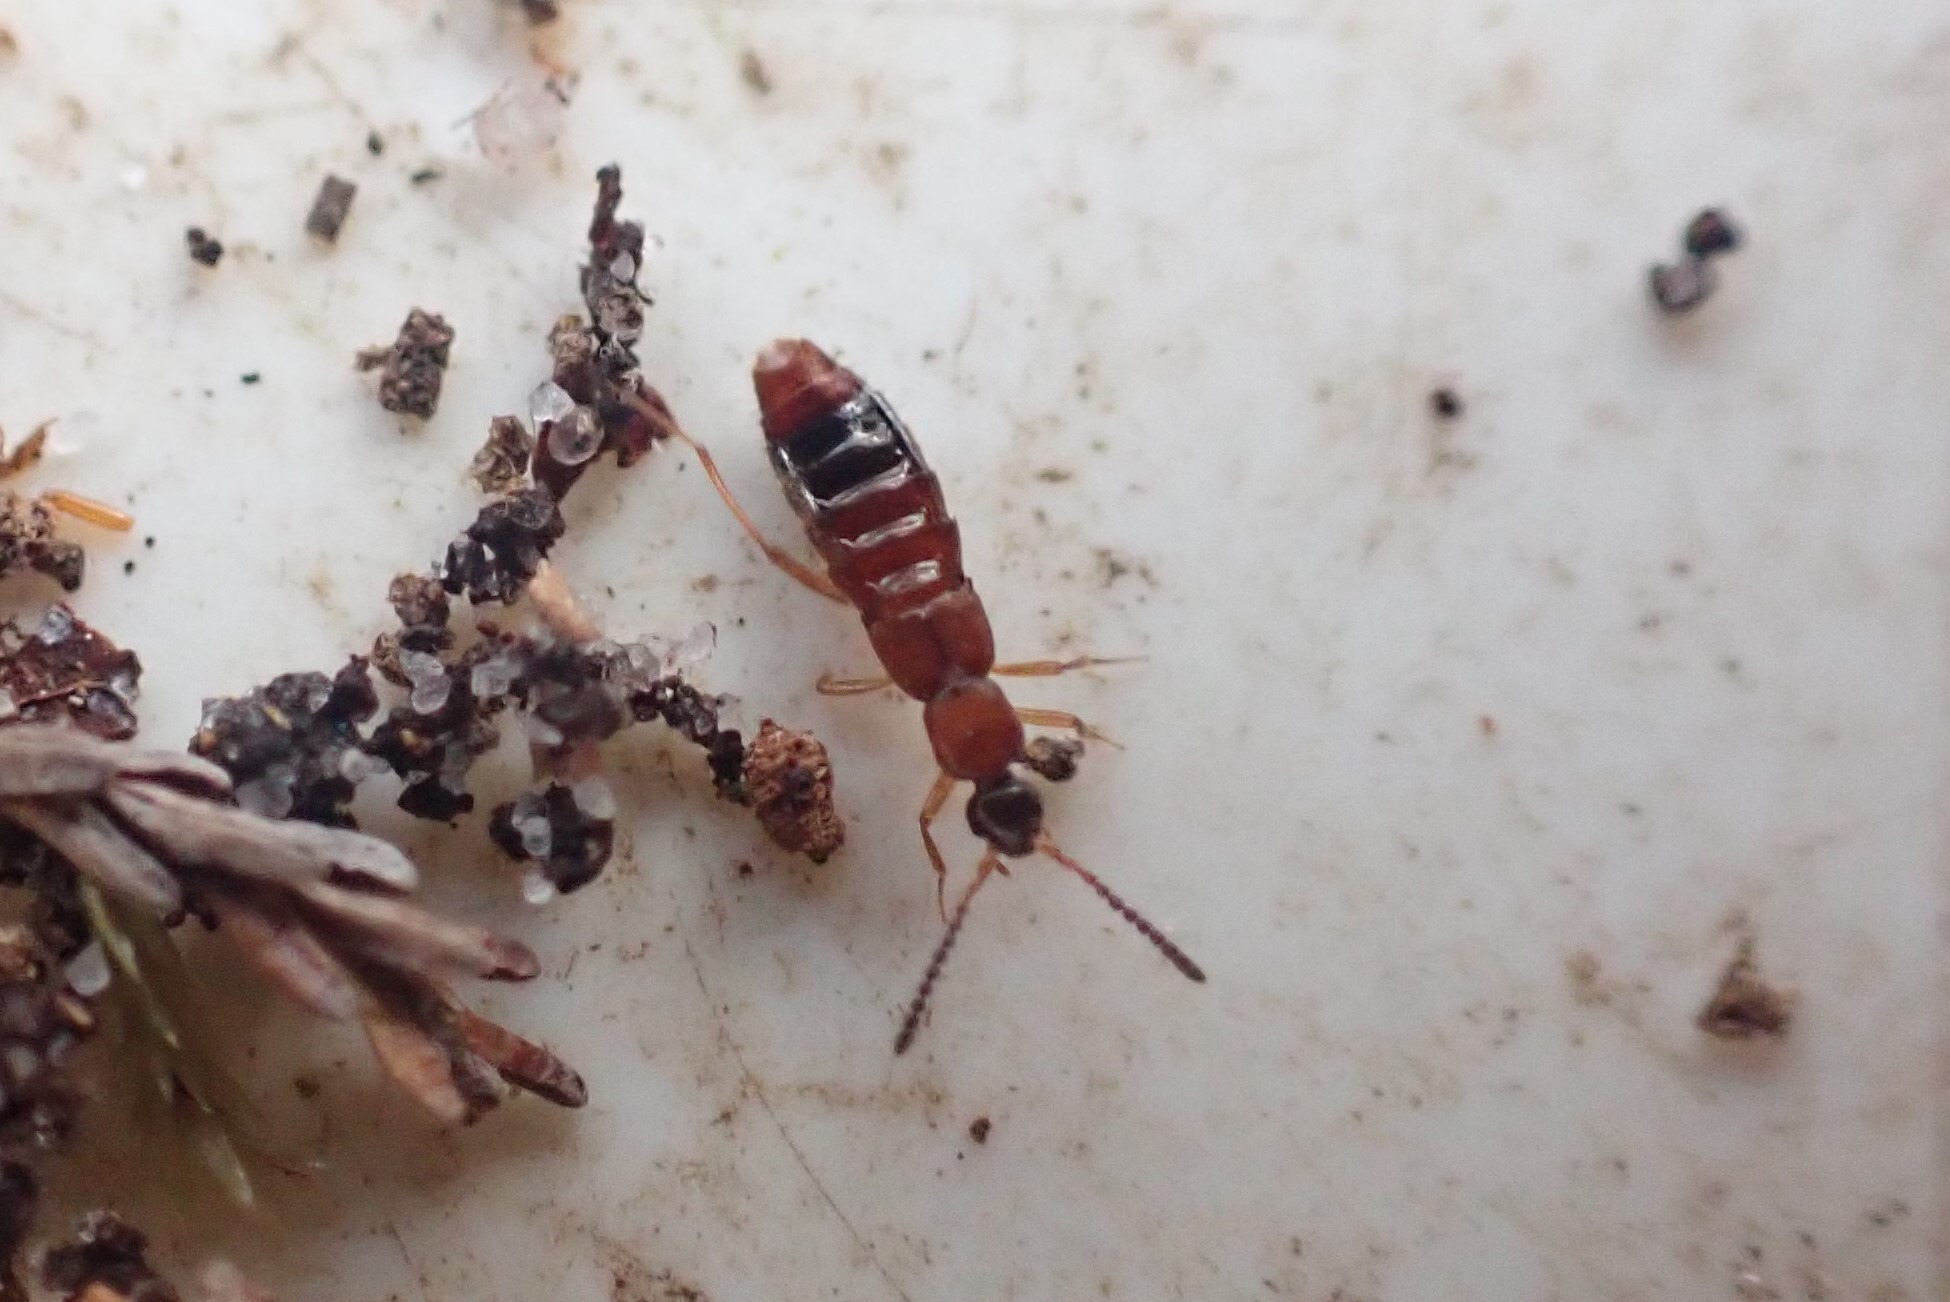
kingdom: Animalia
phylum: Arthropoda
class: Insecta
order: Coleoptera
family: Staphylinidae
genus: Drusilla
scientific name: Drusilla canaliculata
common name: Myrerøver
